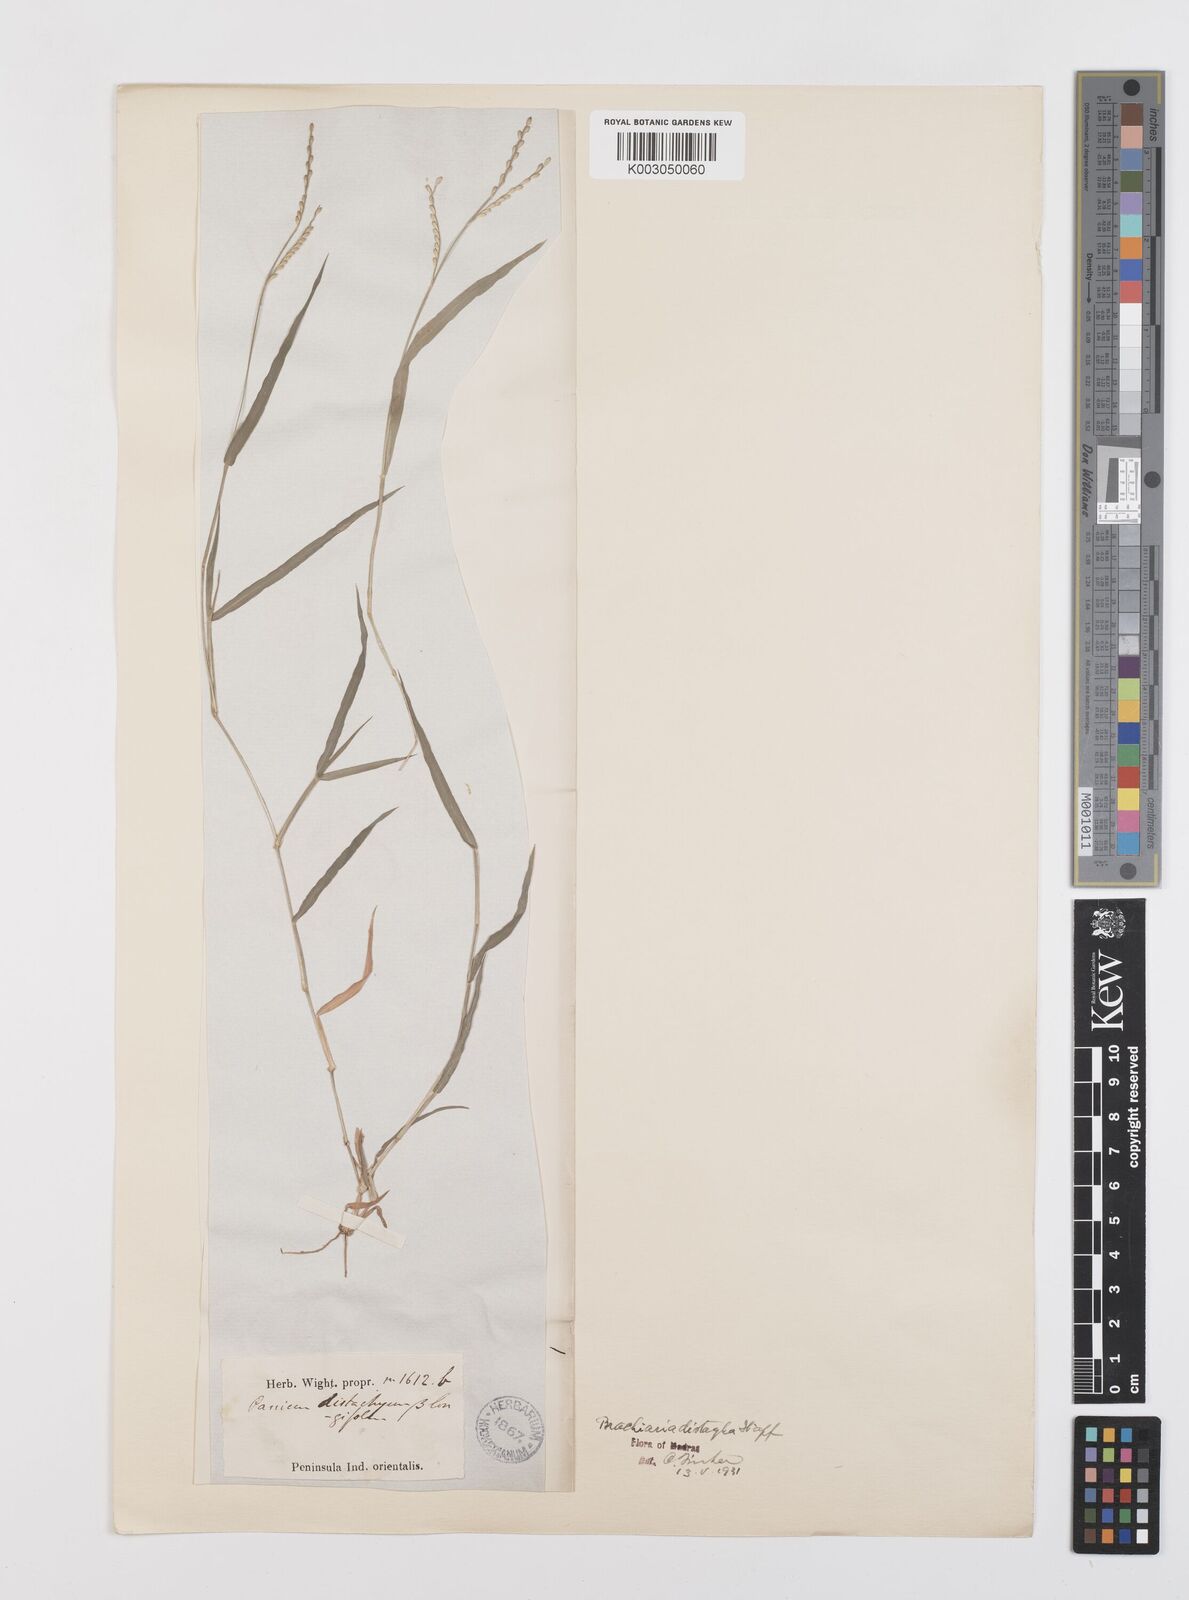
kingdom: Plantae
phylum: Tracheophyta
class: Liliopsida
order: Poales
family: Poaceae
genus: Urochloa
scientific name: Urochloa distachyos
